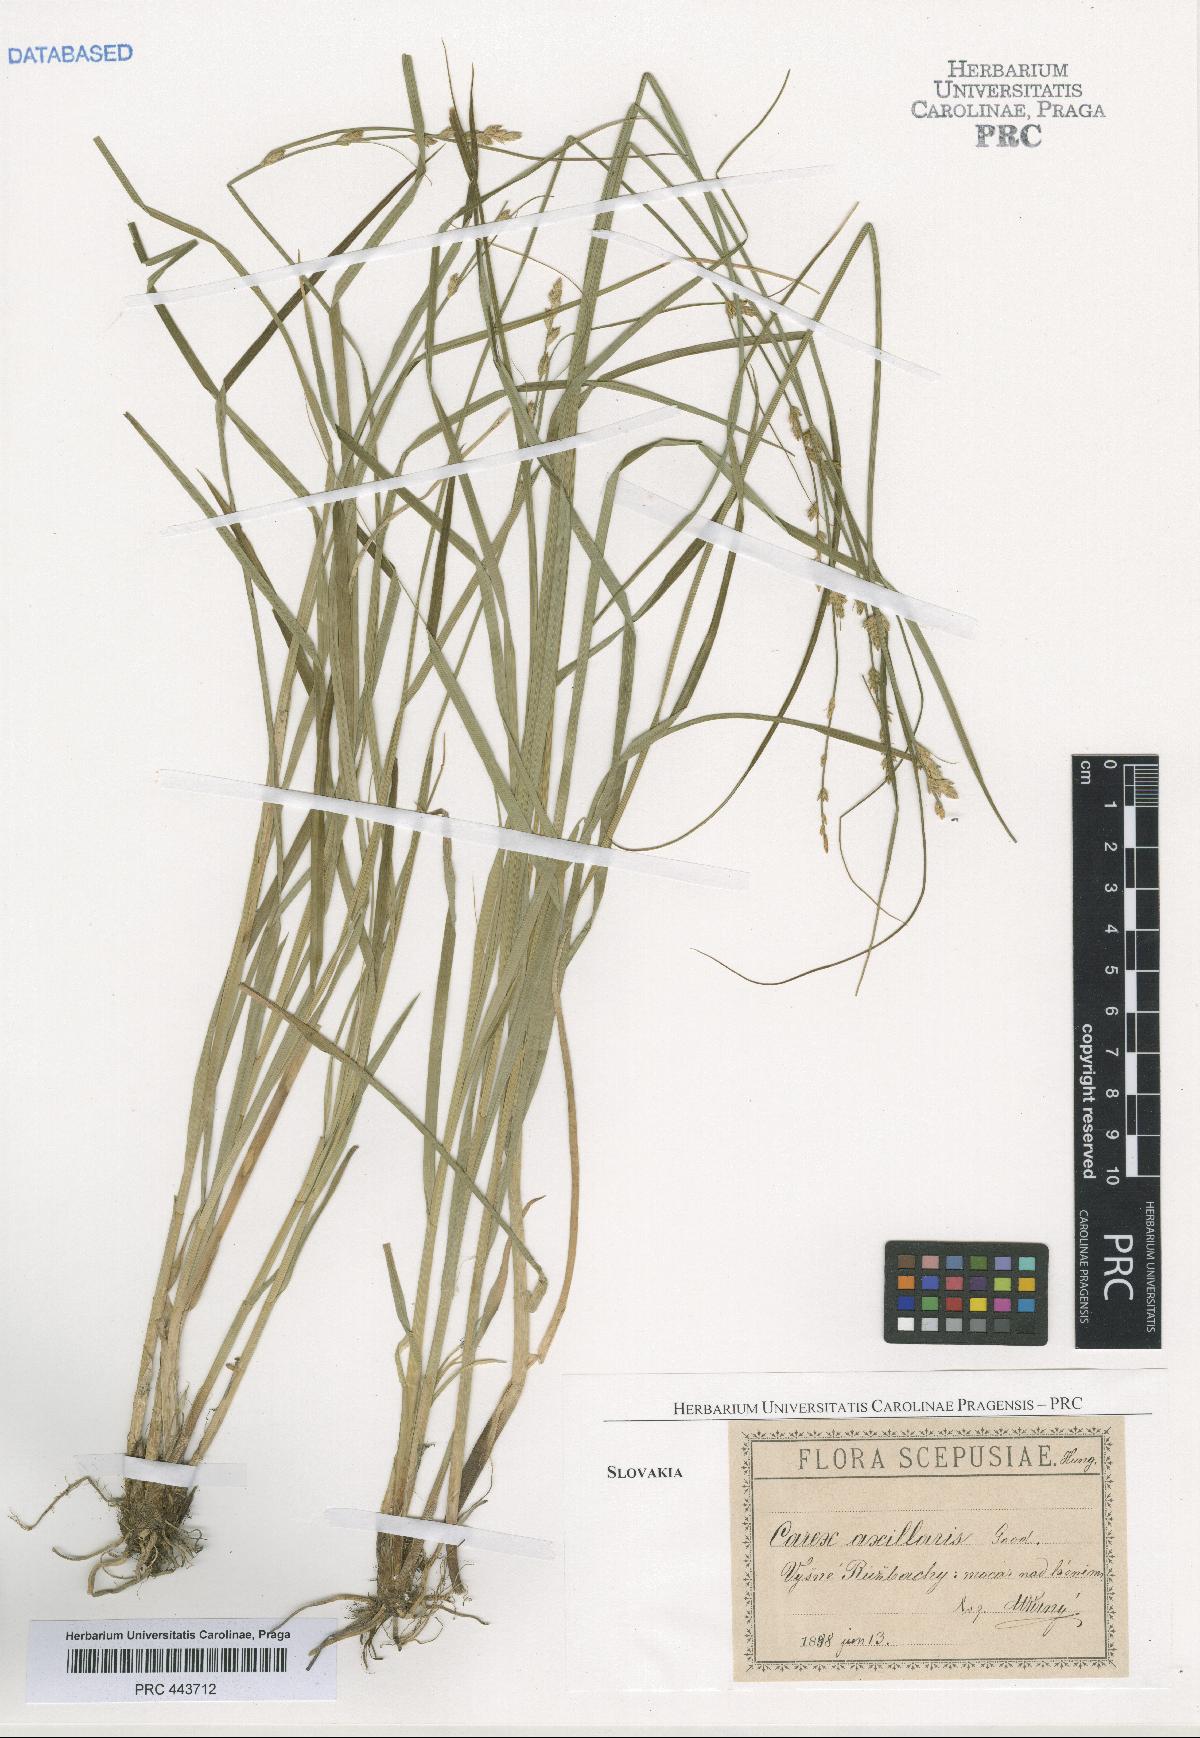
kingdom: Plantae
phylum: Tracheophyta
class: Liliopsida
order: Poales
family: Cyperaceae
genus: Carex
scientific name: Carex pseudoaxillaris
